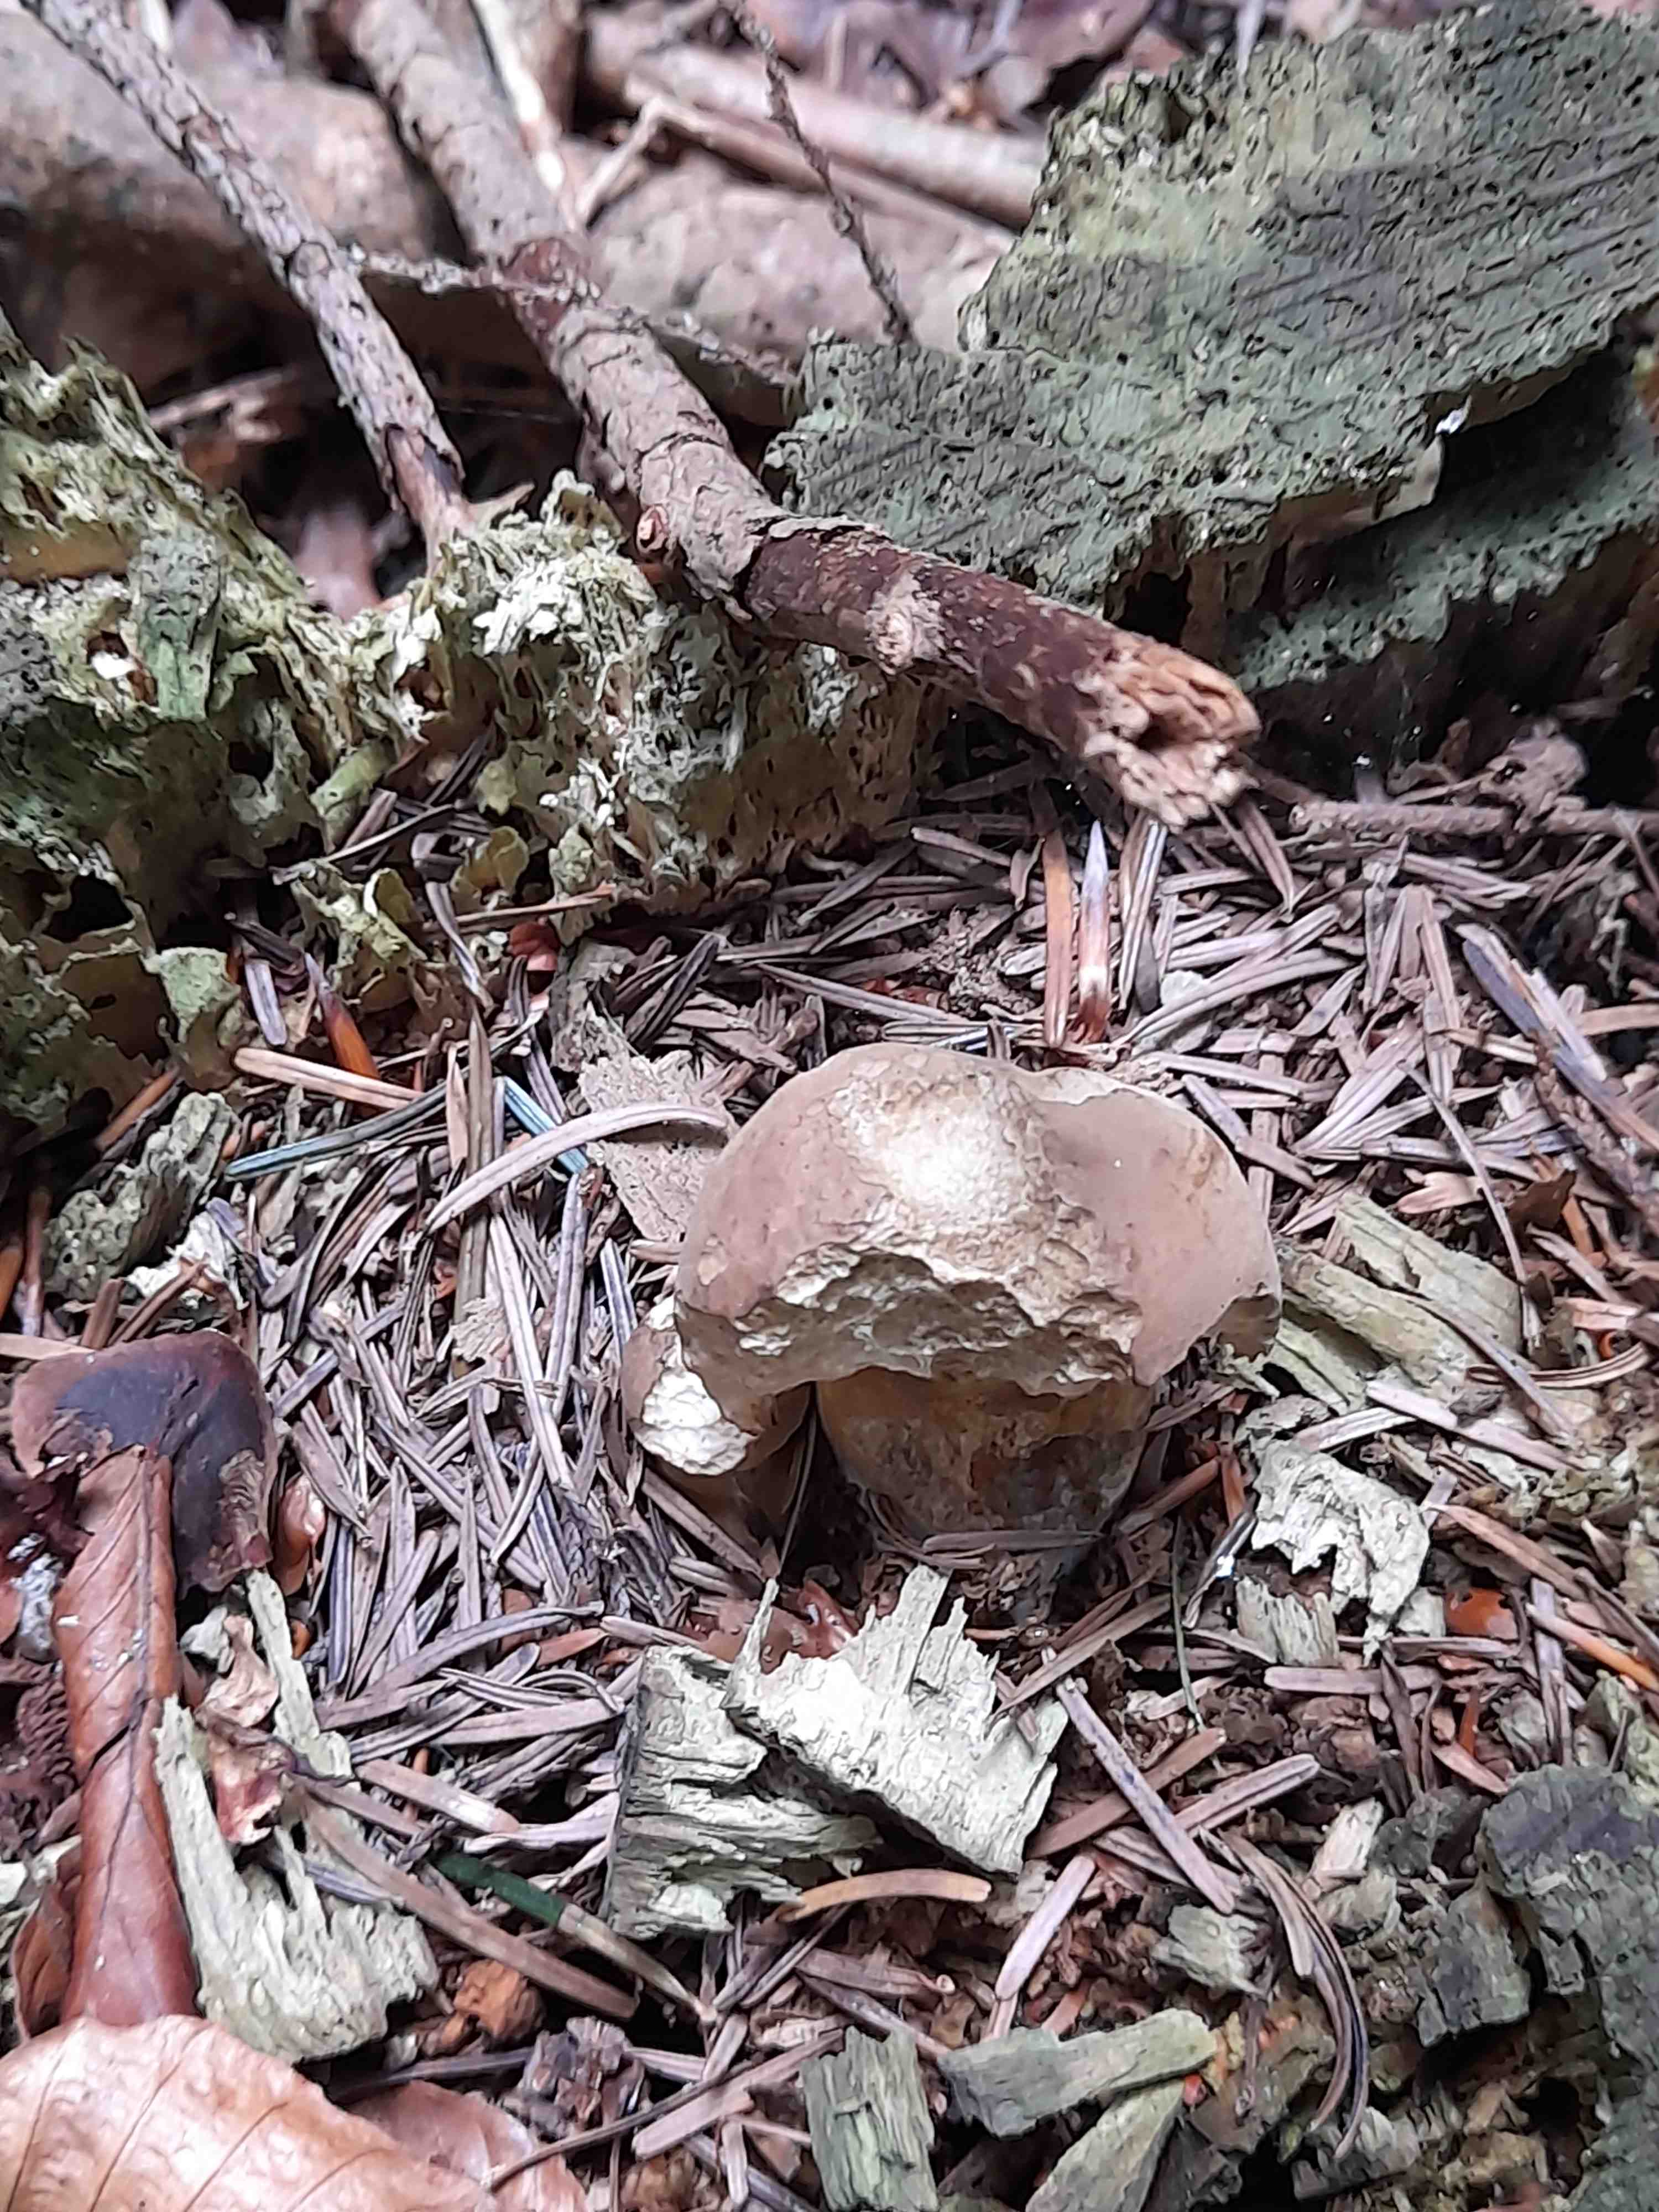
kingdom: Fungi
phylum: Basidiomycota
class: Agaricomycetes
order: Boletales
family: Boletaceae
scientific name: Boletaceae
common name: rørhatfamilien
